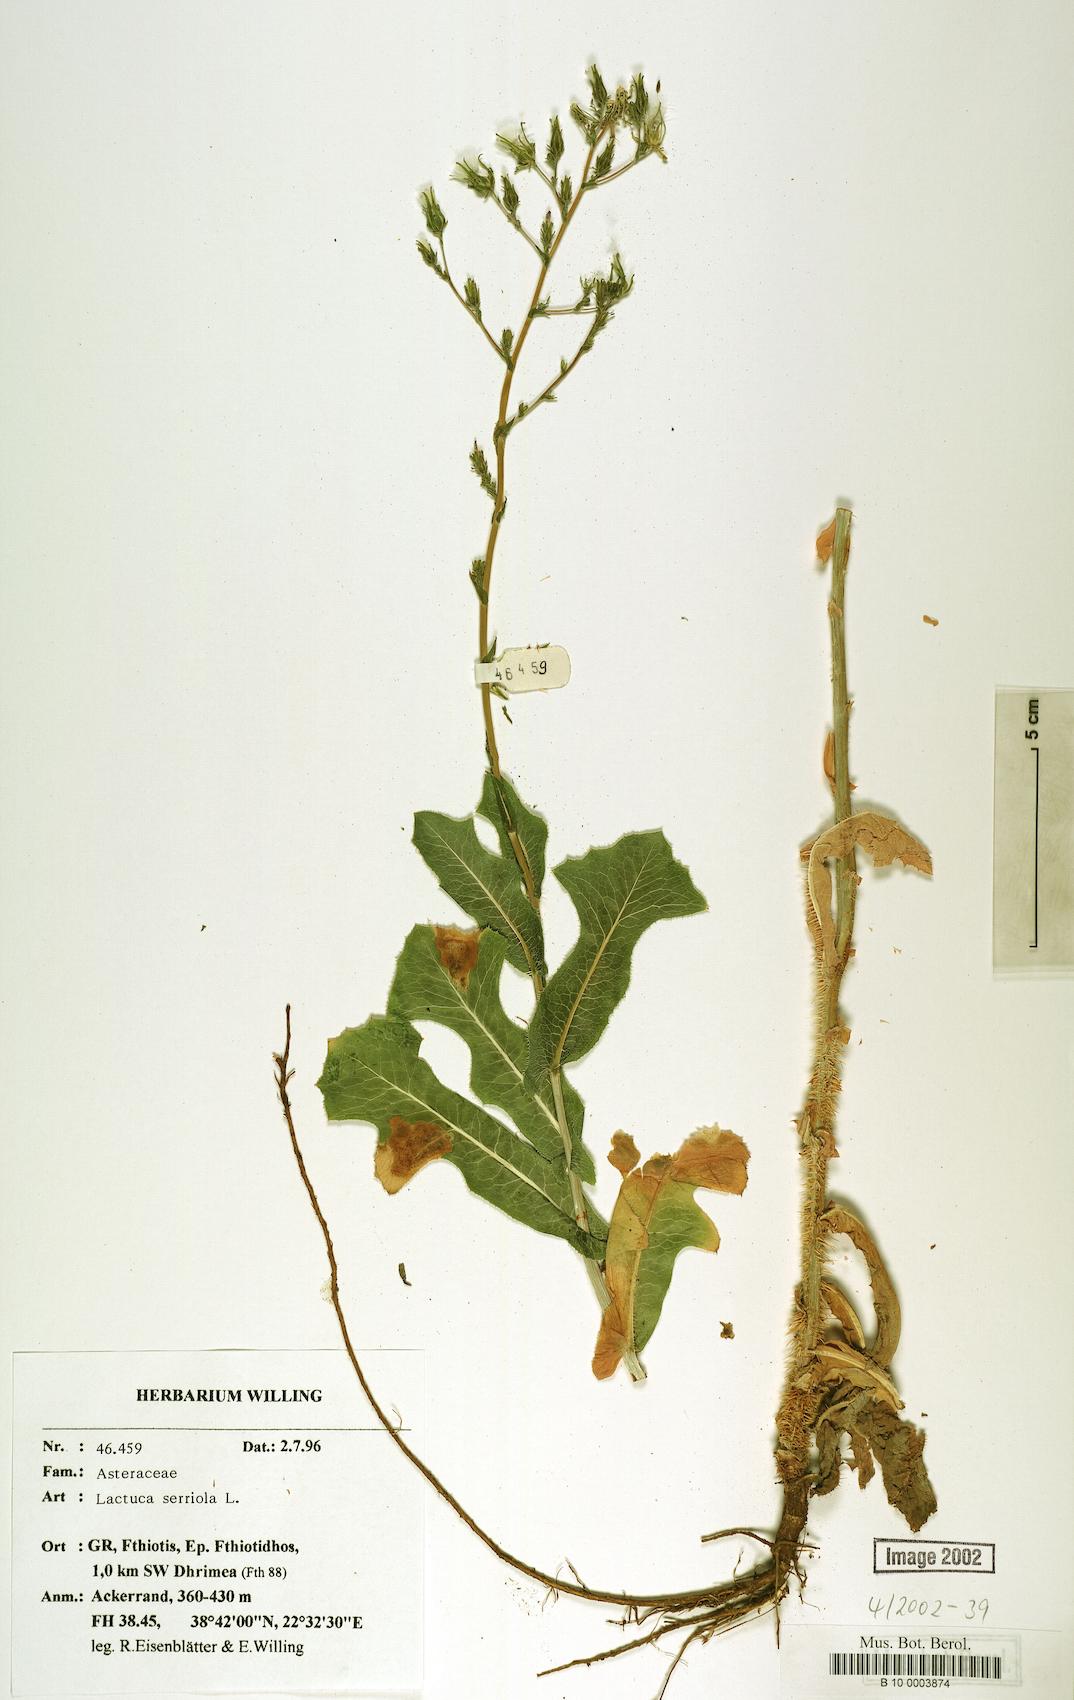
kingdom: Plantae
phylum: Tracheophyta
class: Magnoliopsida
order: Asterales
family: Asteraceae
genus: Lactuca
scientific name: Lactuca serriola
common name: Prickly lettuce
